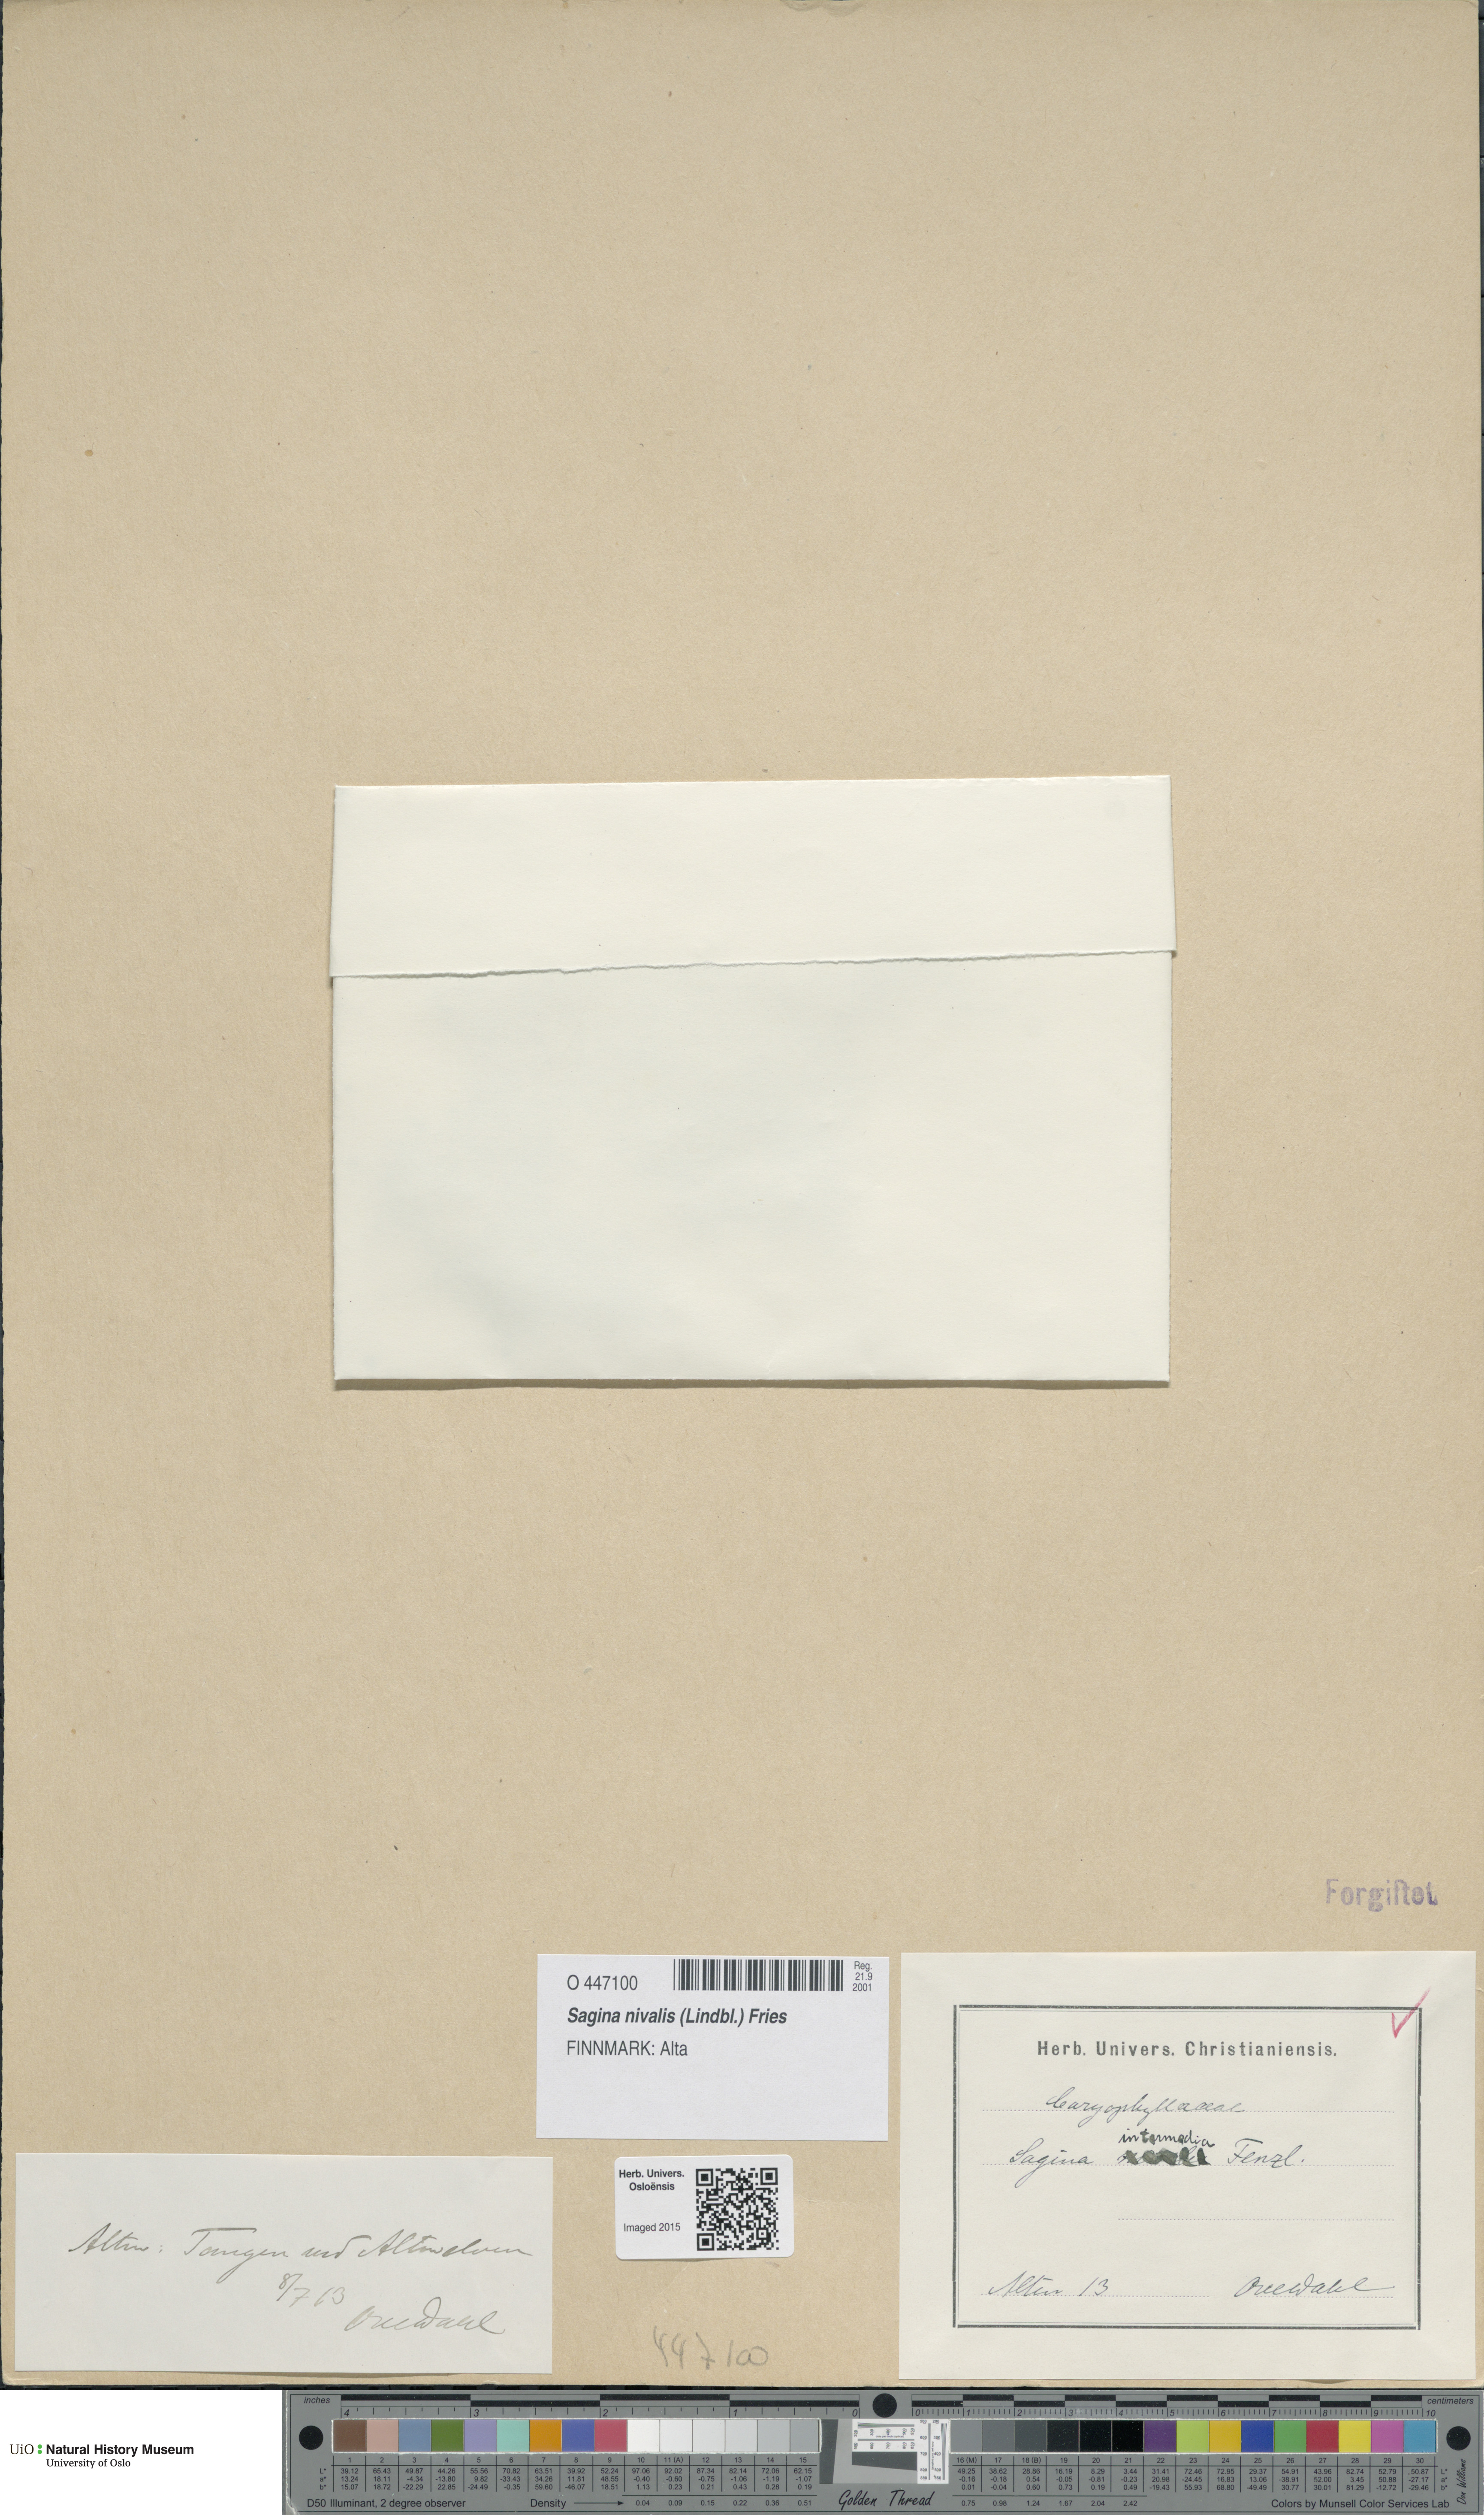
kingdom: Plantae
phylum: Tracheophyta
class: Magnoliopsida
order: Caryophyllales
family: Caryophyllaceae
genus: Sagina
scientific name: Sagina nivalis
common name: Snow pearlwort
